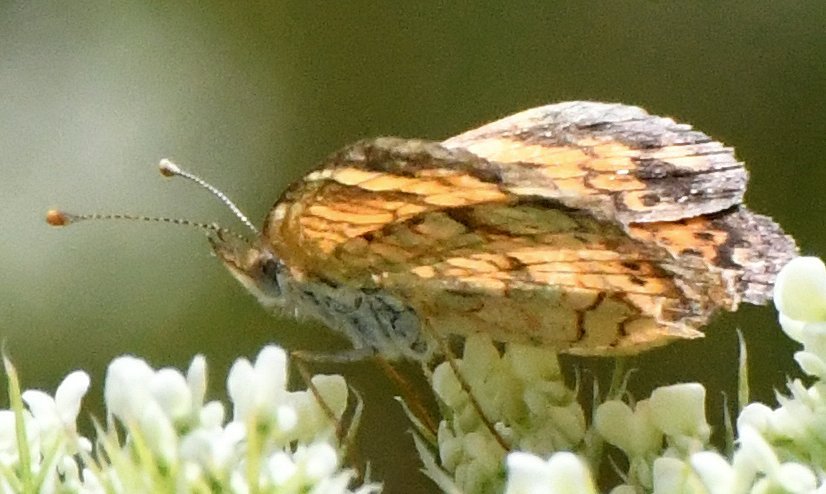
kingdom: Animalia
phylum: Arthropoda
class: Insecta
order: Lepidoptera
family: Nymphalidae
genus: Phyciodes
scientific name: Phyciodes
